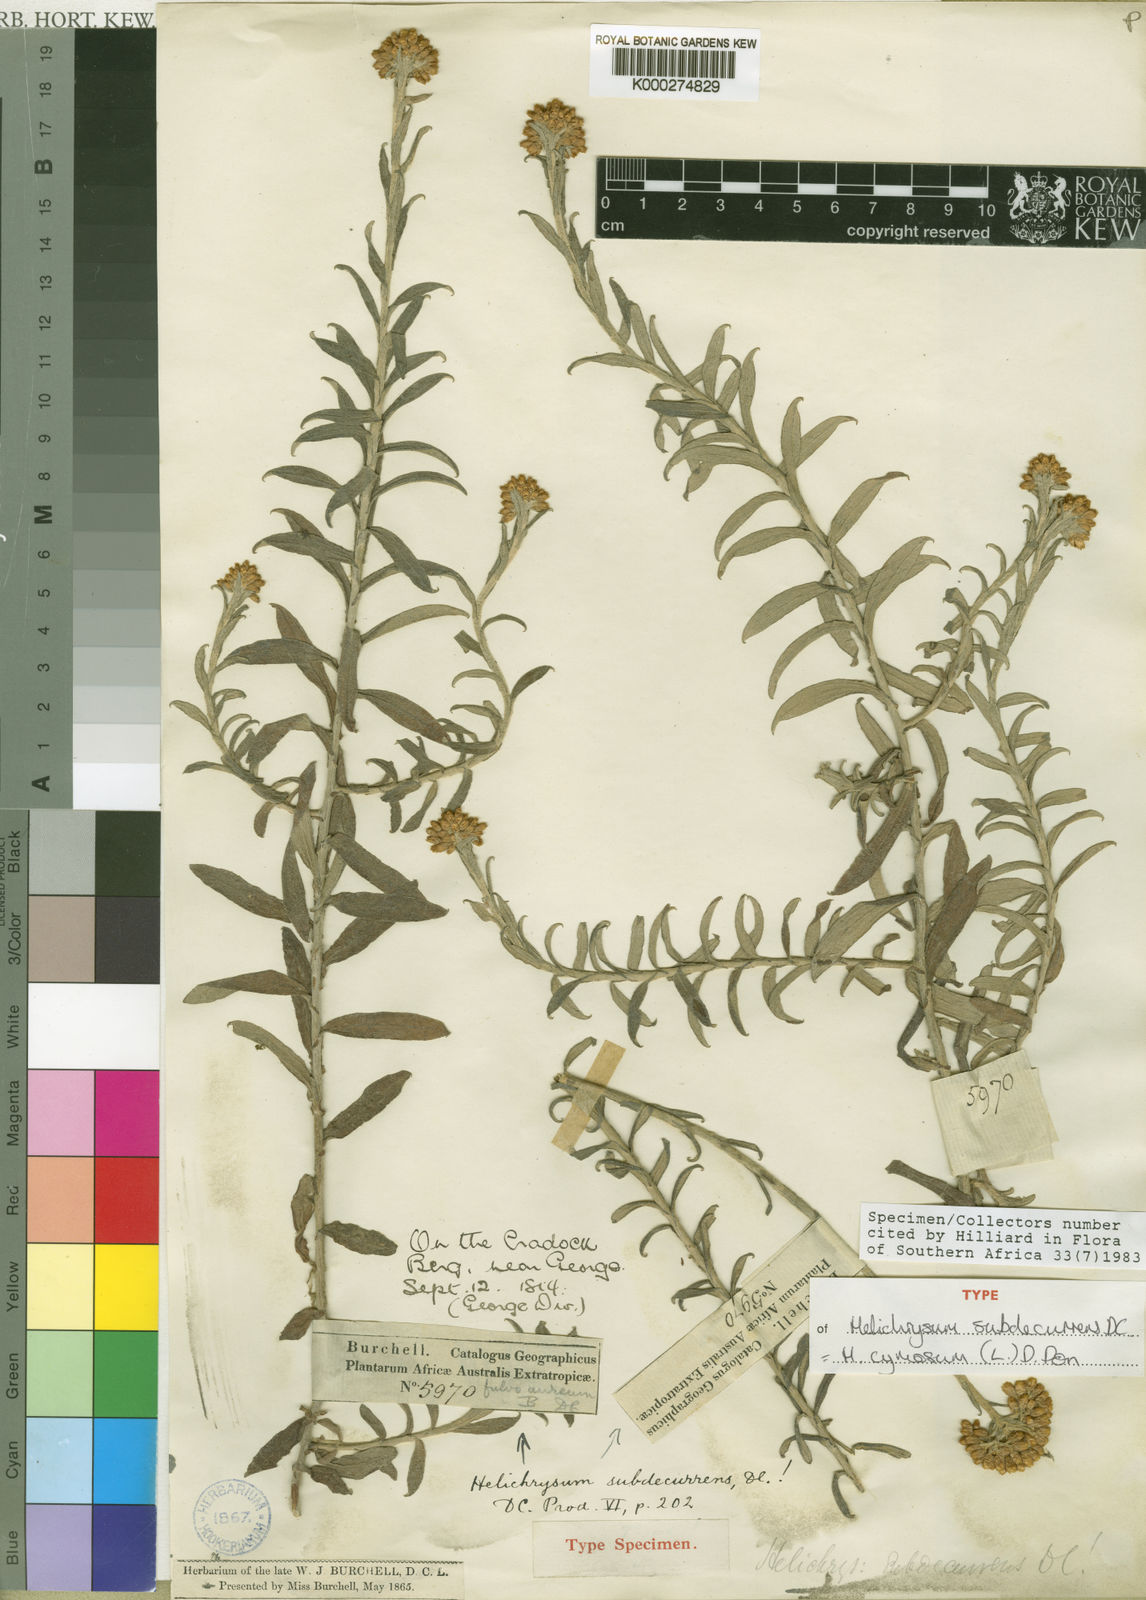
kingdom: Plantae
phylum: Tracheophyta
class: Magnoliopsida
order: Asterales
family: Asteraceae
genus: Helichrysum
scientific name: Helichrysum cymosum
